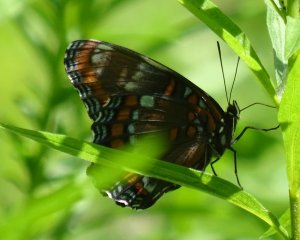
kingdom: Animalia
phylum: Arthropoda
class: Insecta
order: Lepidoptera
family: Nymphalidae
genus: Limenitis
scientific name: Limenitis astyanax
